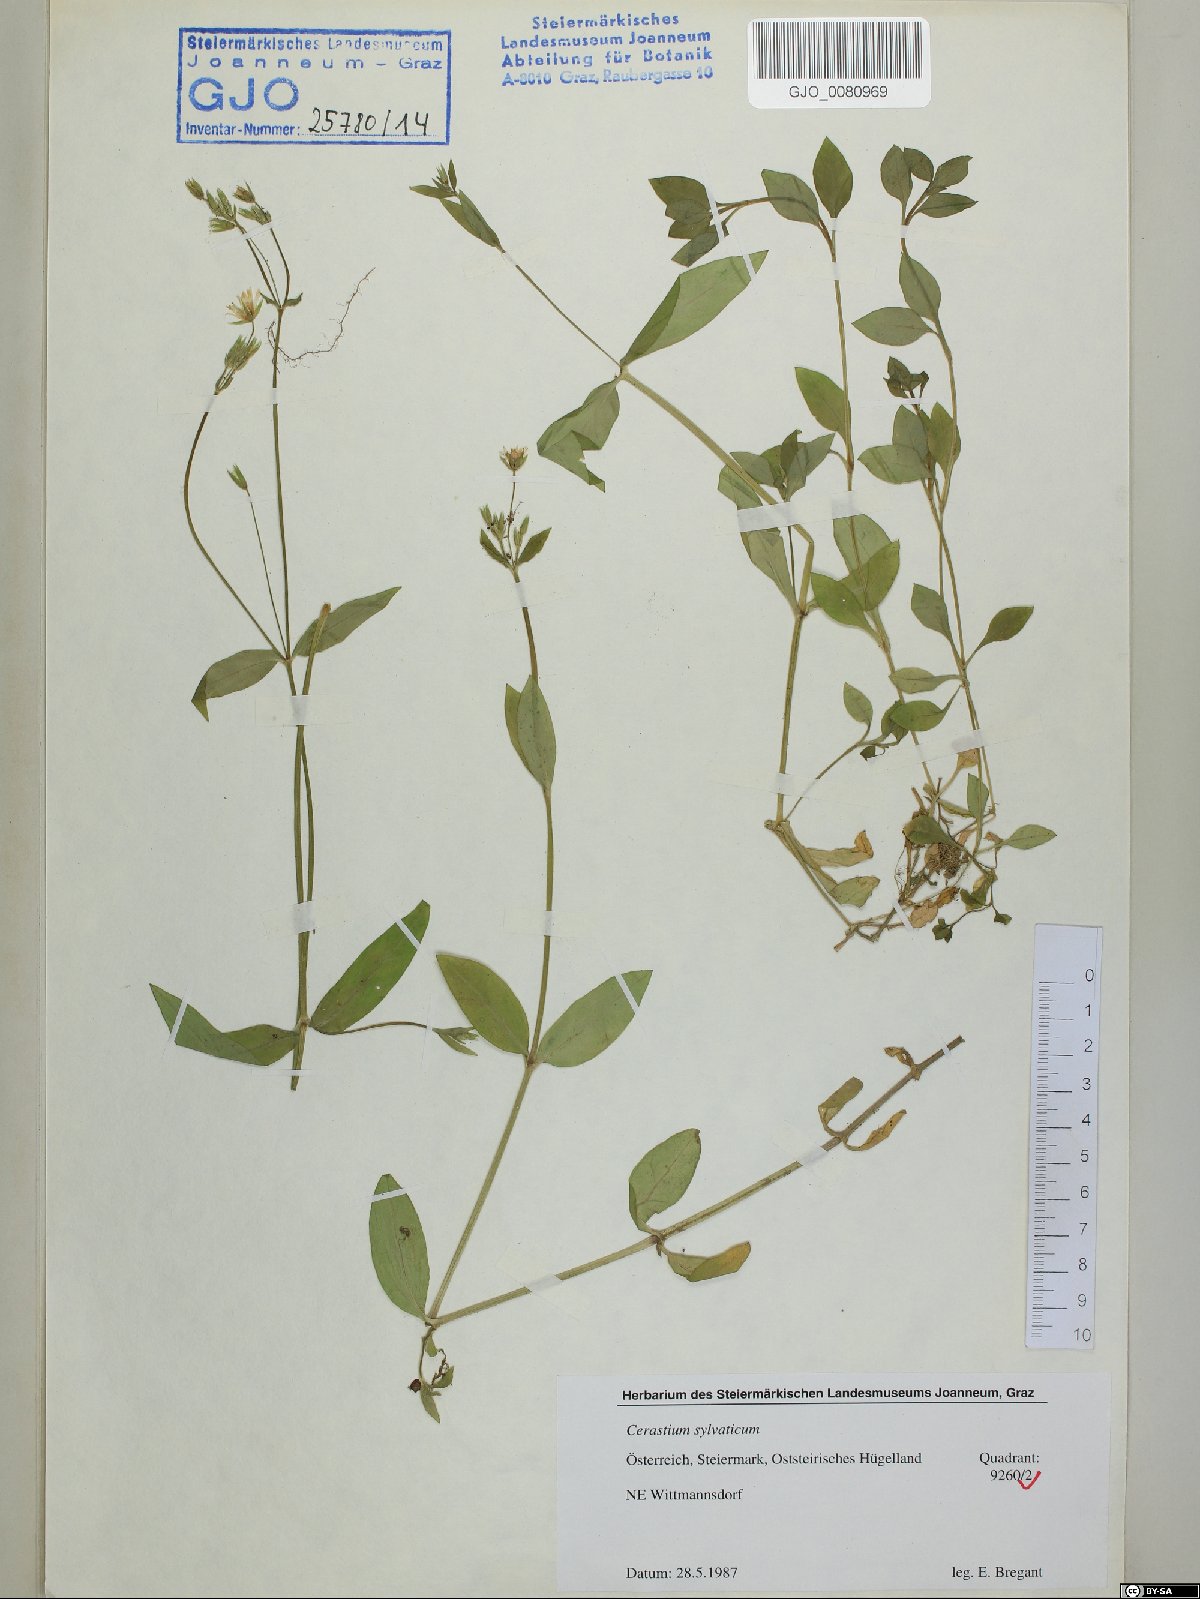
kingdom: Plantae
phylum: Tracheophyta
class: Magnoliopsida
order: Caryophyllales
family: Caryophyllaceae
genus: Cerastium
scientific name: Cerastium sylvaticum
